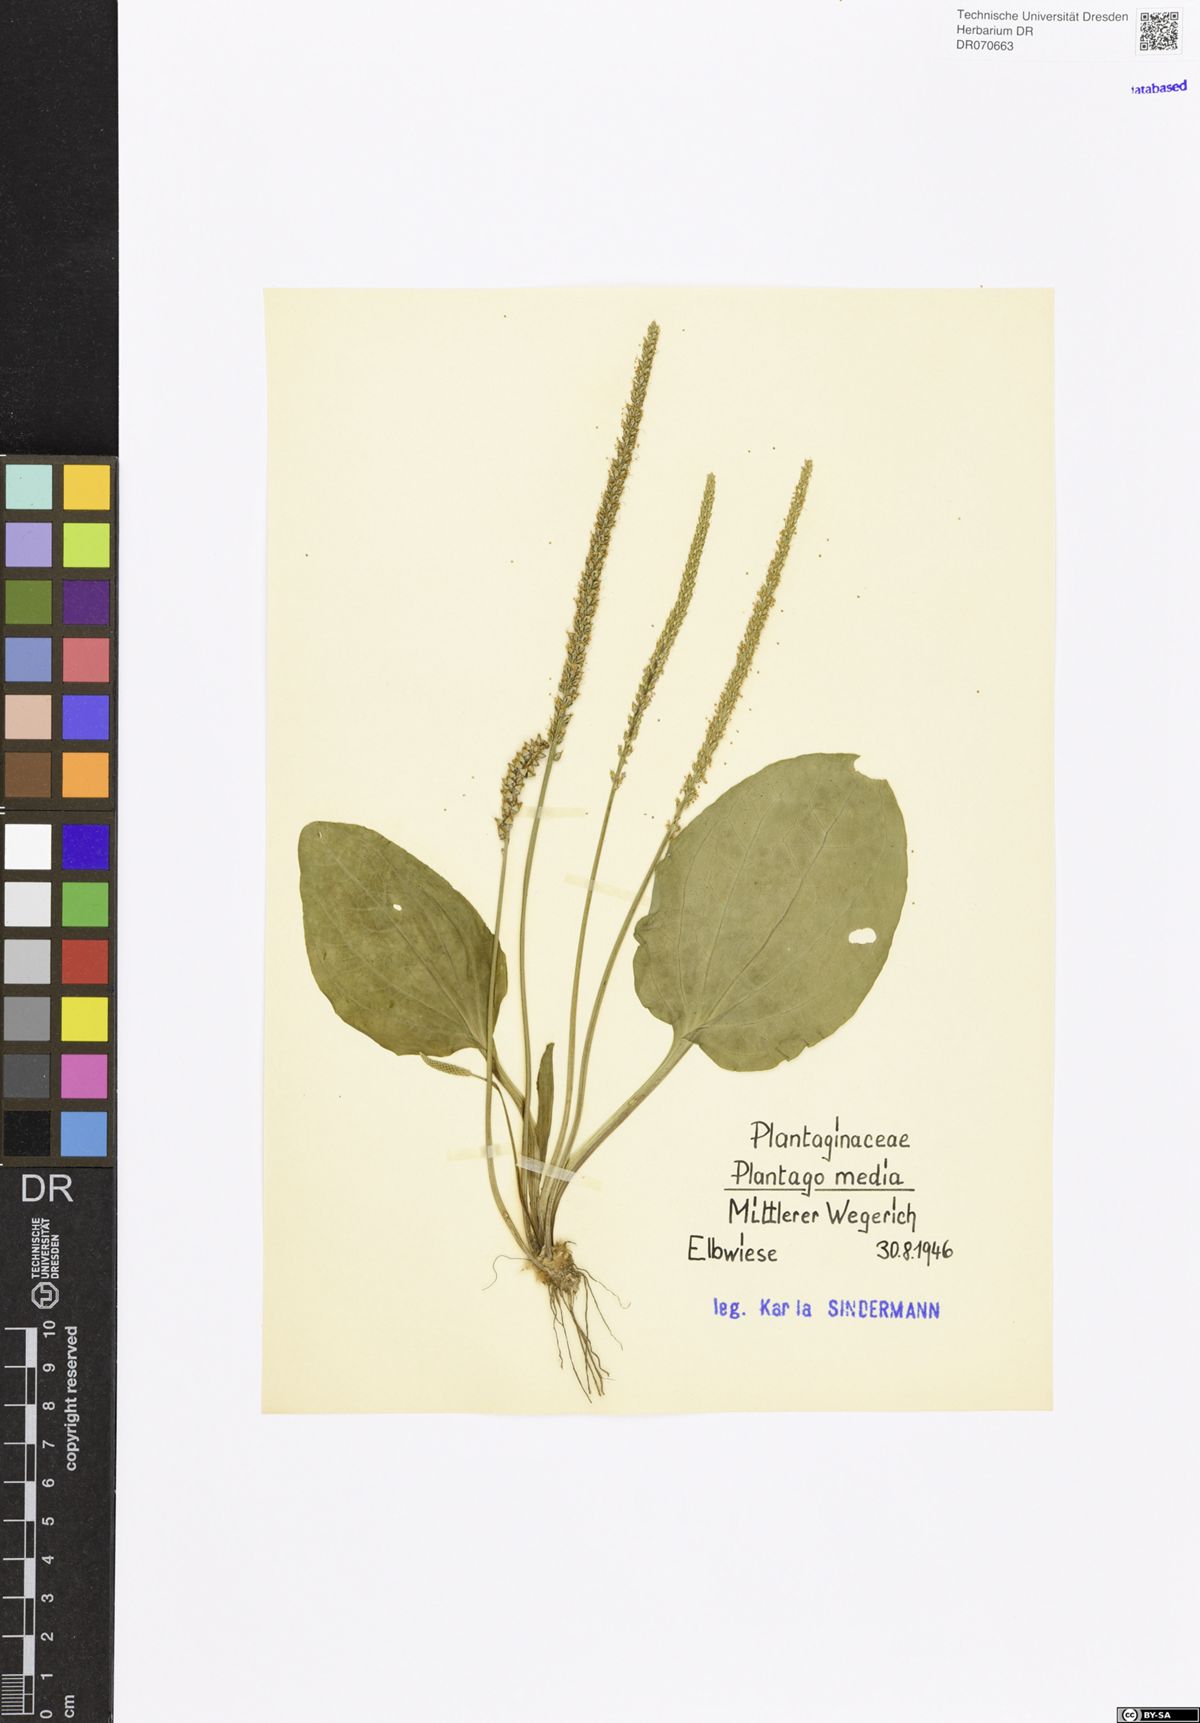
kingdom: Plantae
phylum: Tracheophyta
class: Magnoliopsida
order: Lamiales
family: Plantaginaceae
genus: Plantago
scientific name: Plantago media
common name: Hoary plantain
